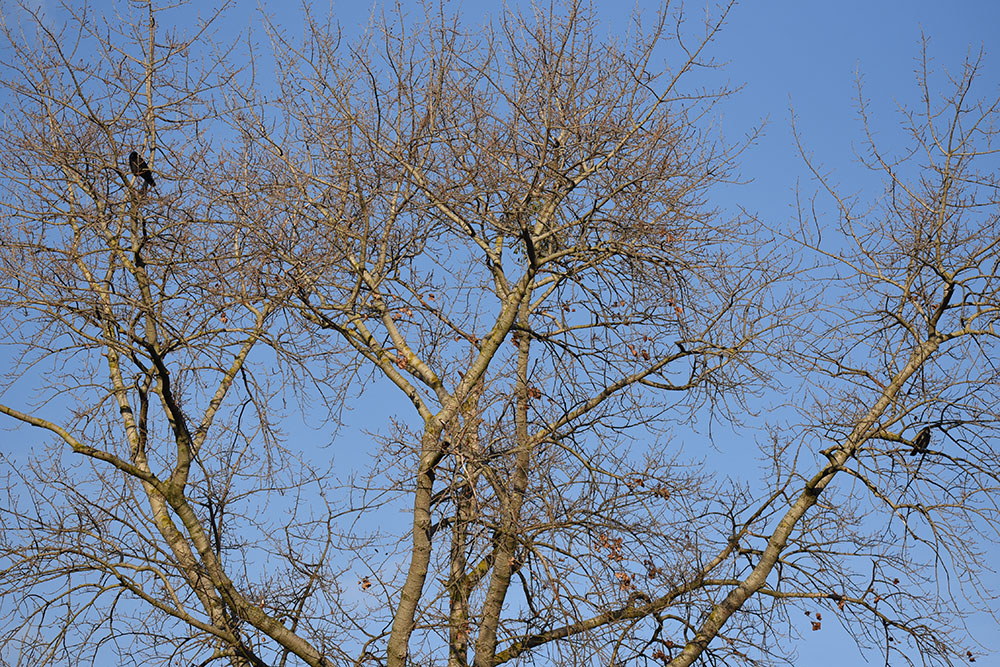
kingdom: Animalia
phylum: Chordata
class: Aves
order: Passeriformes
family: Corvidae
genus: Corvus
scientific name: Corvus corone
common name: Carrion crow
